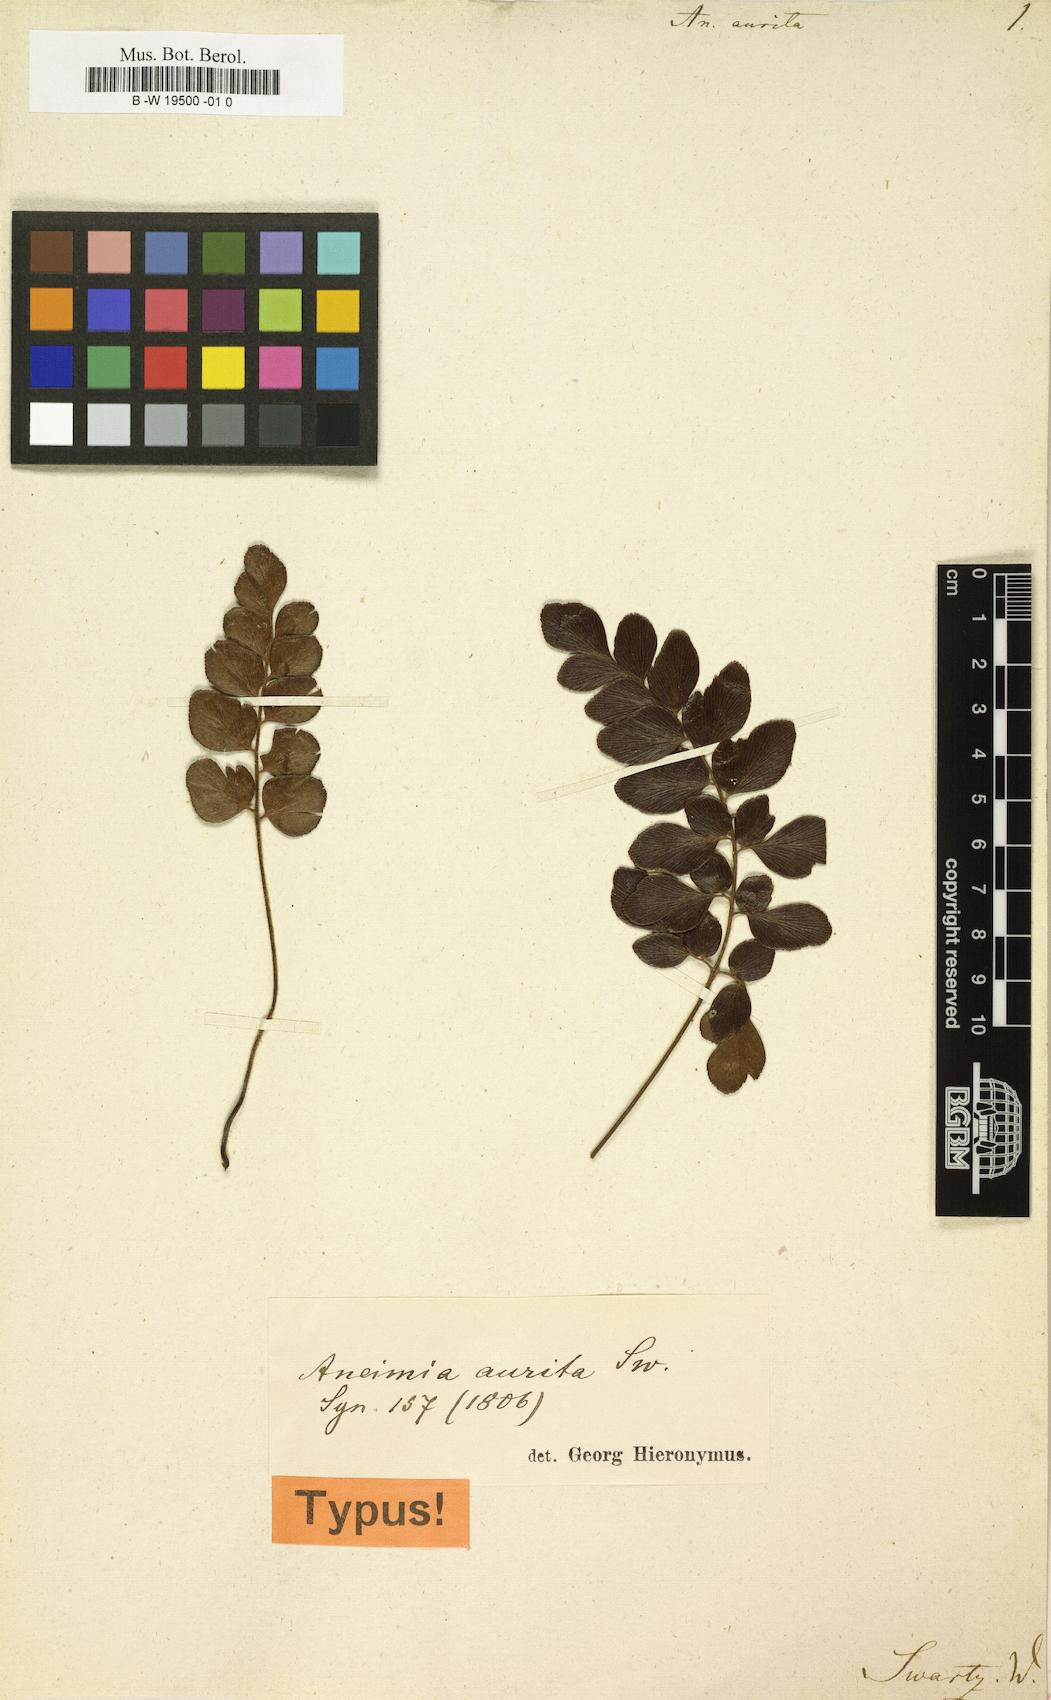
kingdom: Plantae
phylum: Tracheophyta
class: Polypodiopsida
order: Schizaeales
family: Anemiaceae
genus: Anemia
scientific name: Anemia aurita
